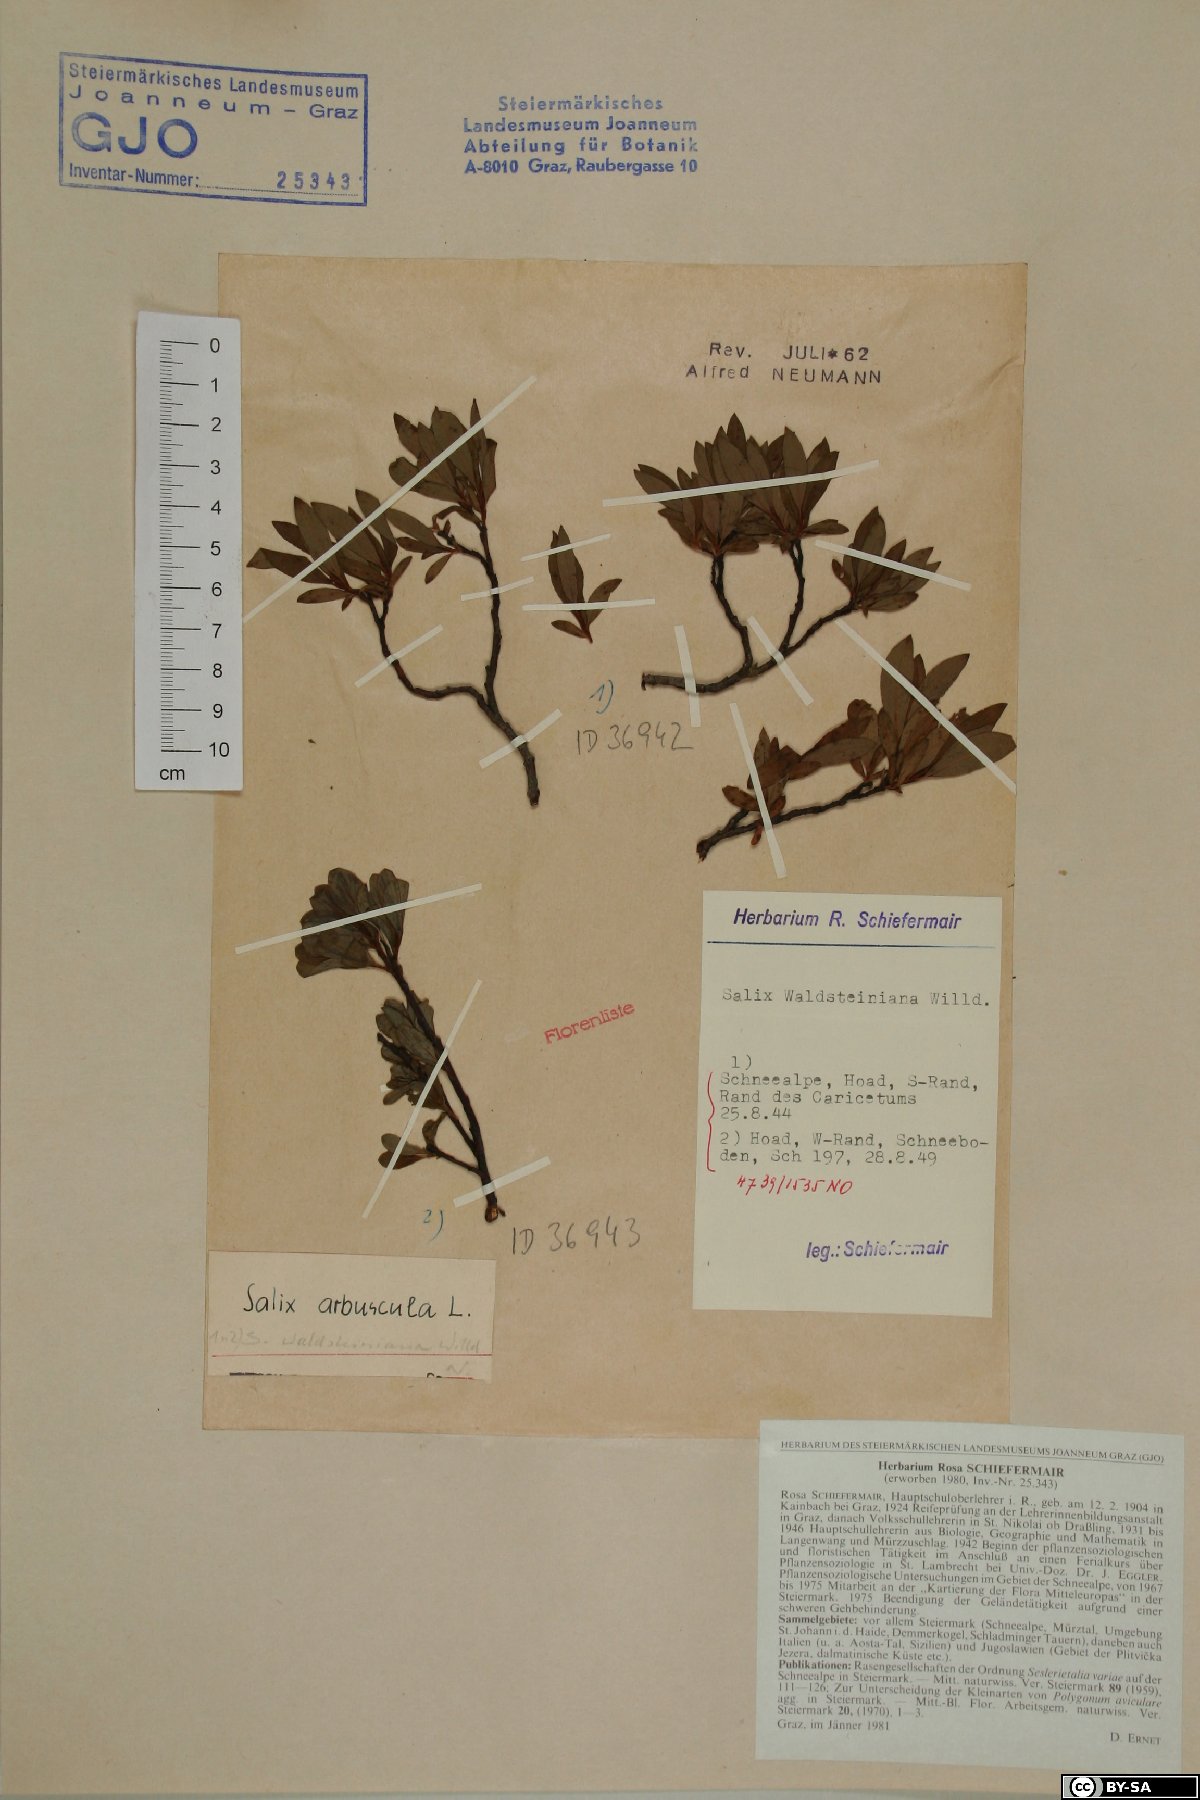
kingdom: Plantae
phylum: Tracheophyta
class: Magnoliopsida
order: Malpighiales
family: Salicaceae
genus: Salix
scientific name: Salix waldsteiniana
